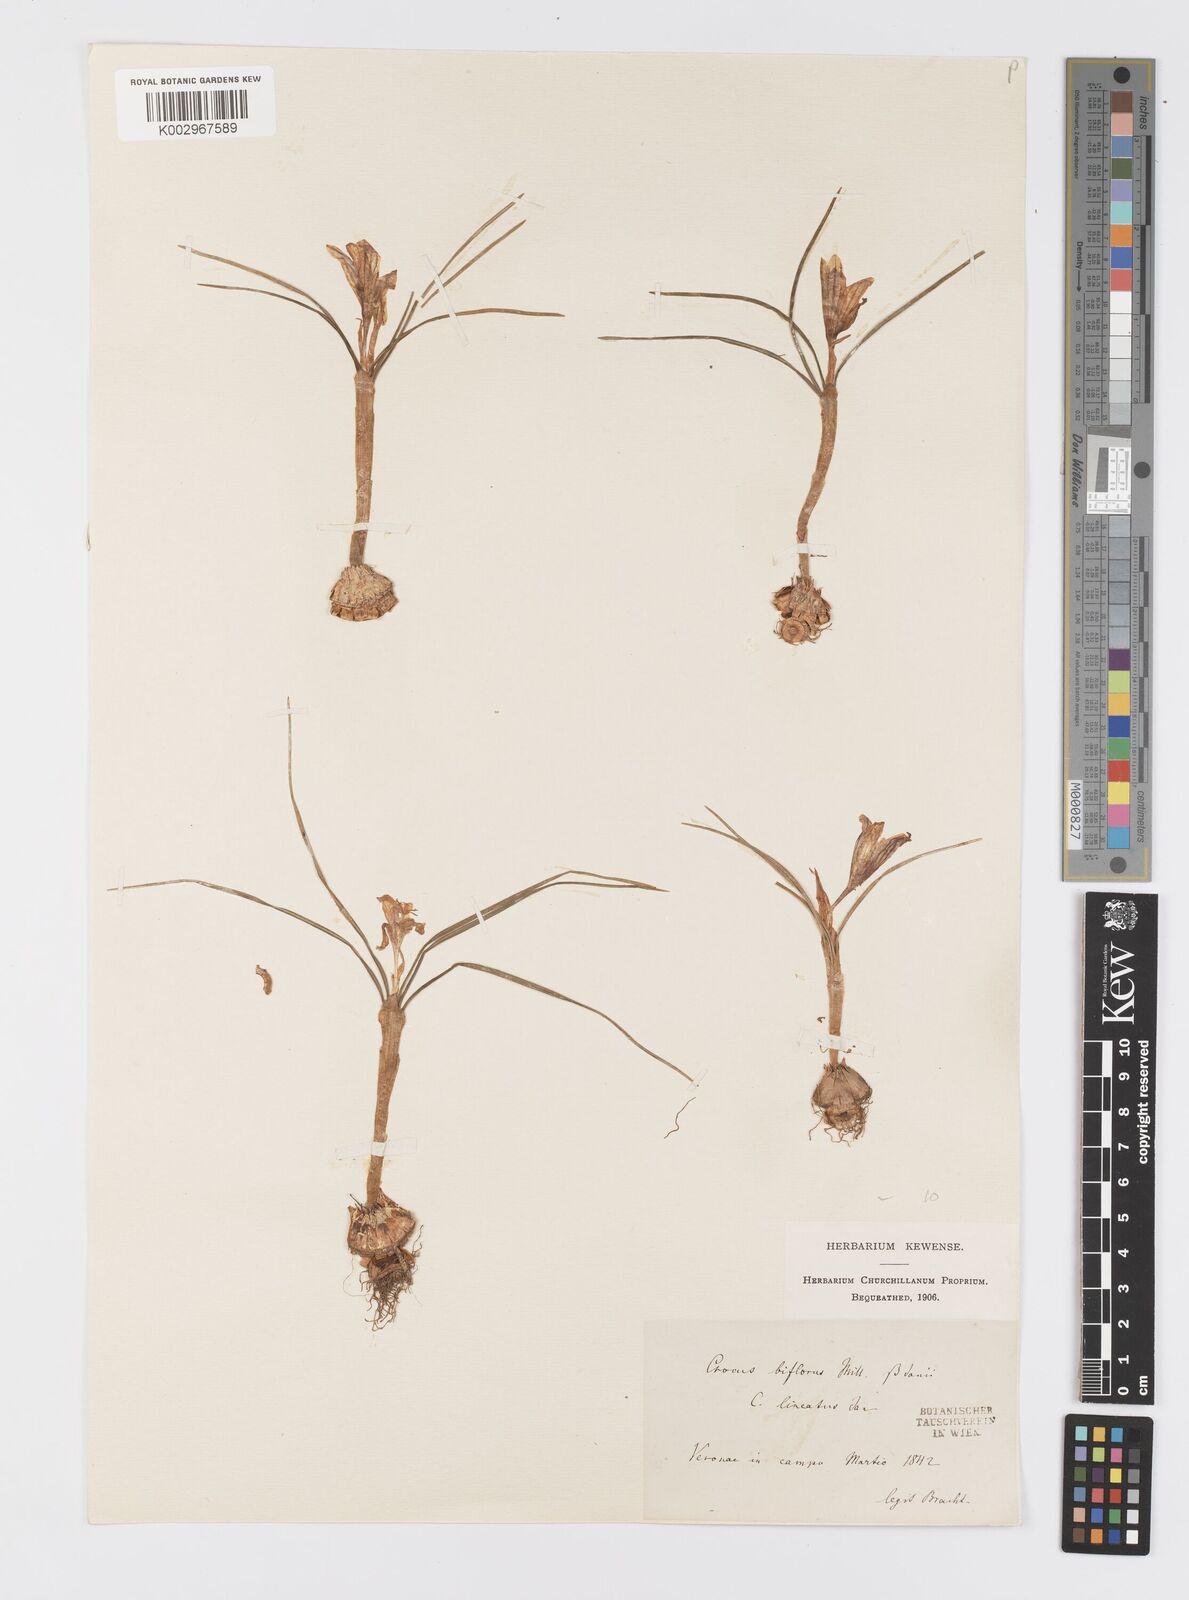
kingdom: Plantae
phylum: Tracheophyta
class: Liliopsida
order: Asparagales
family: Iridaceae
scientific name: Iridaceae
